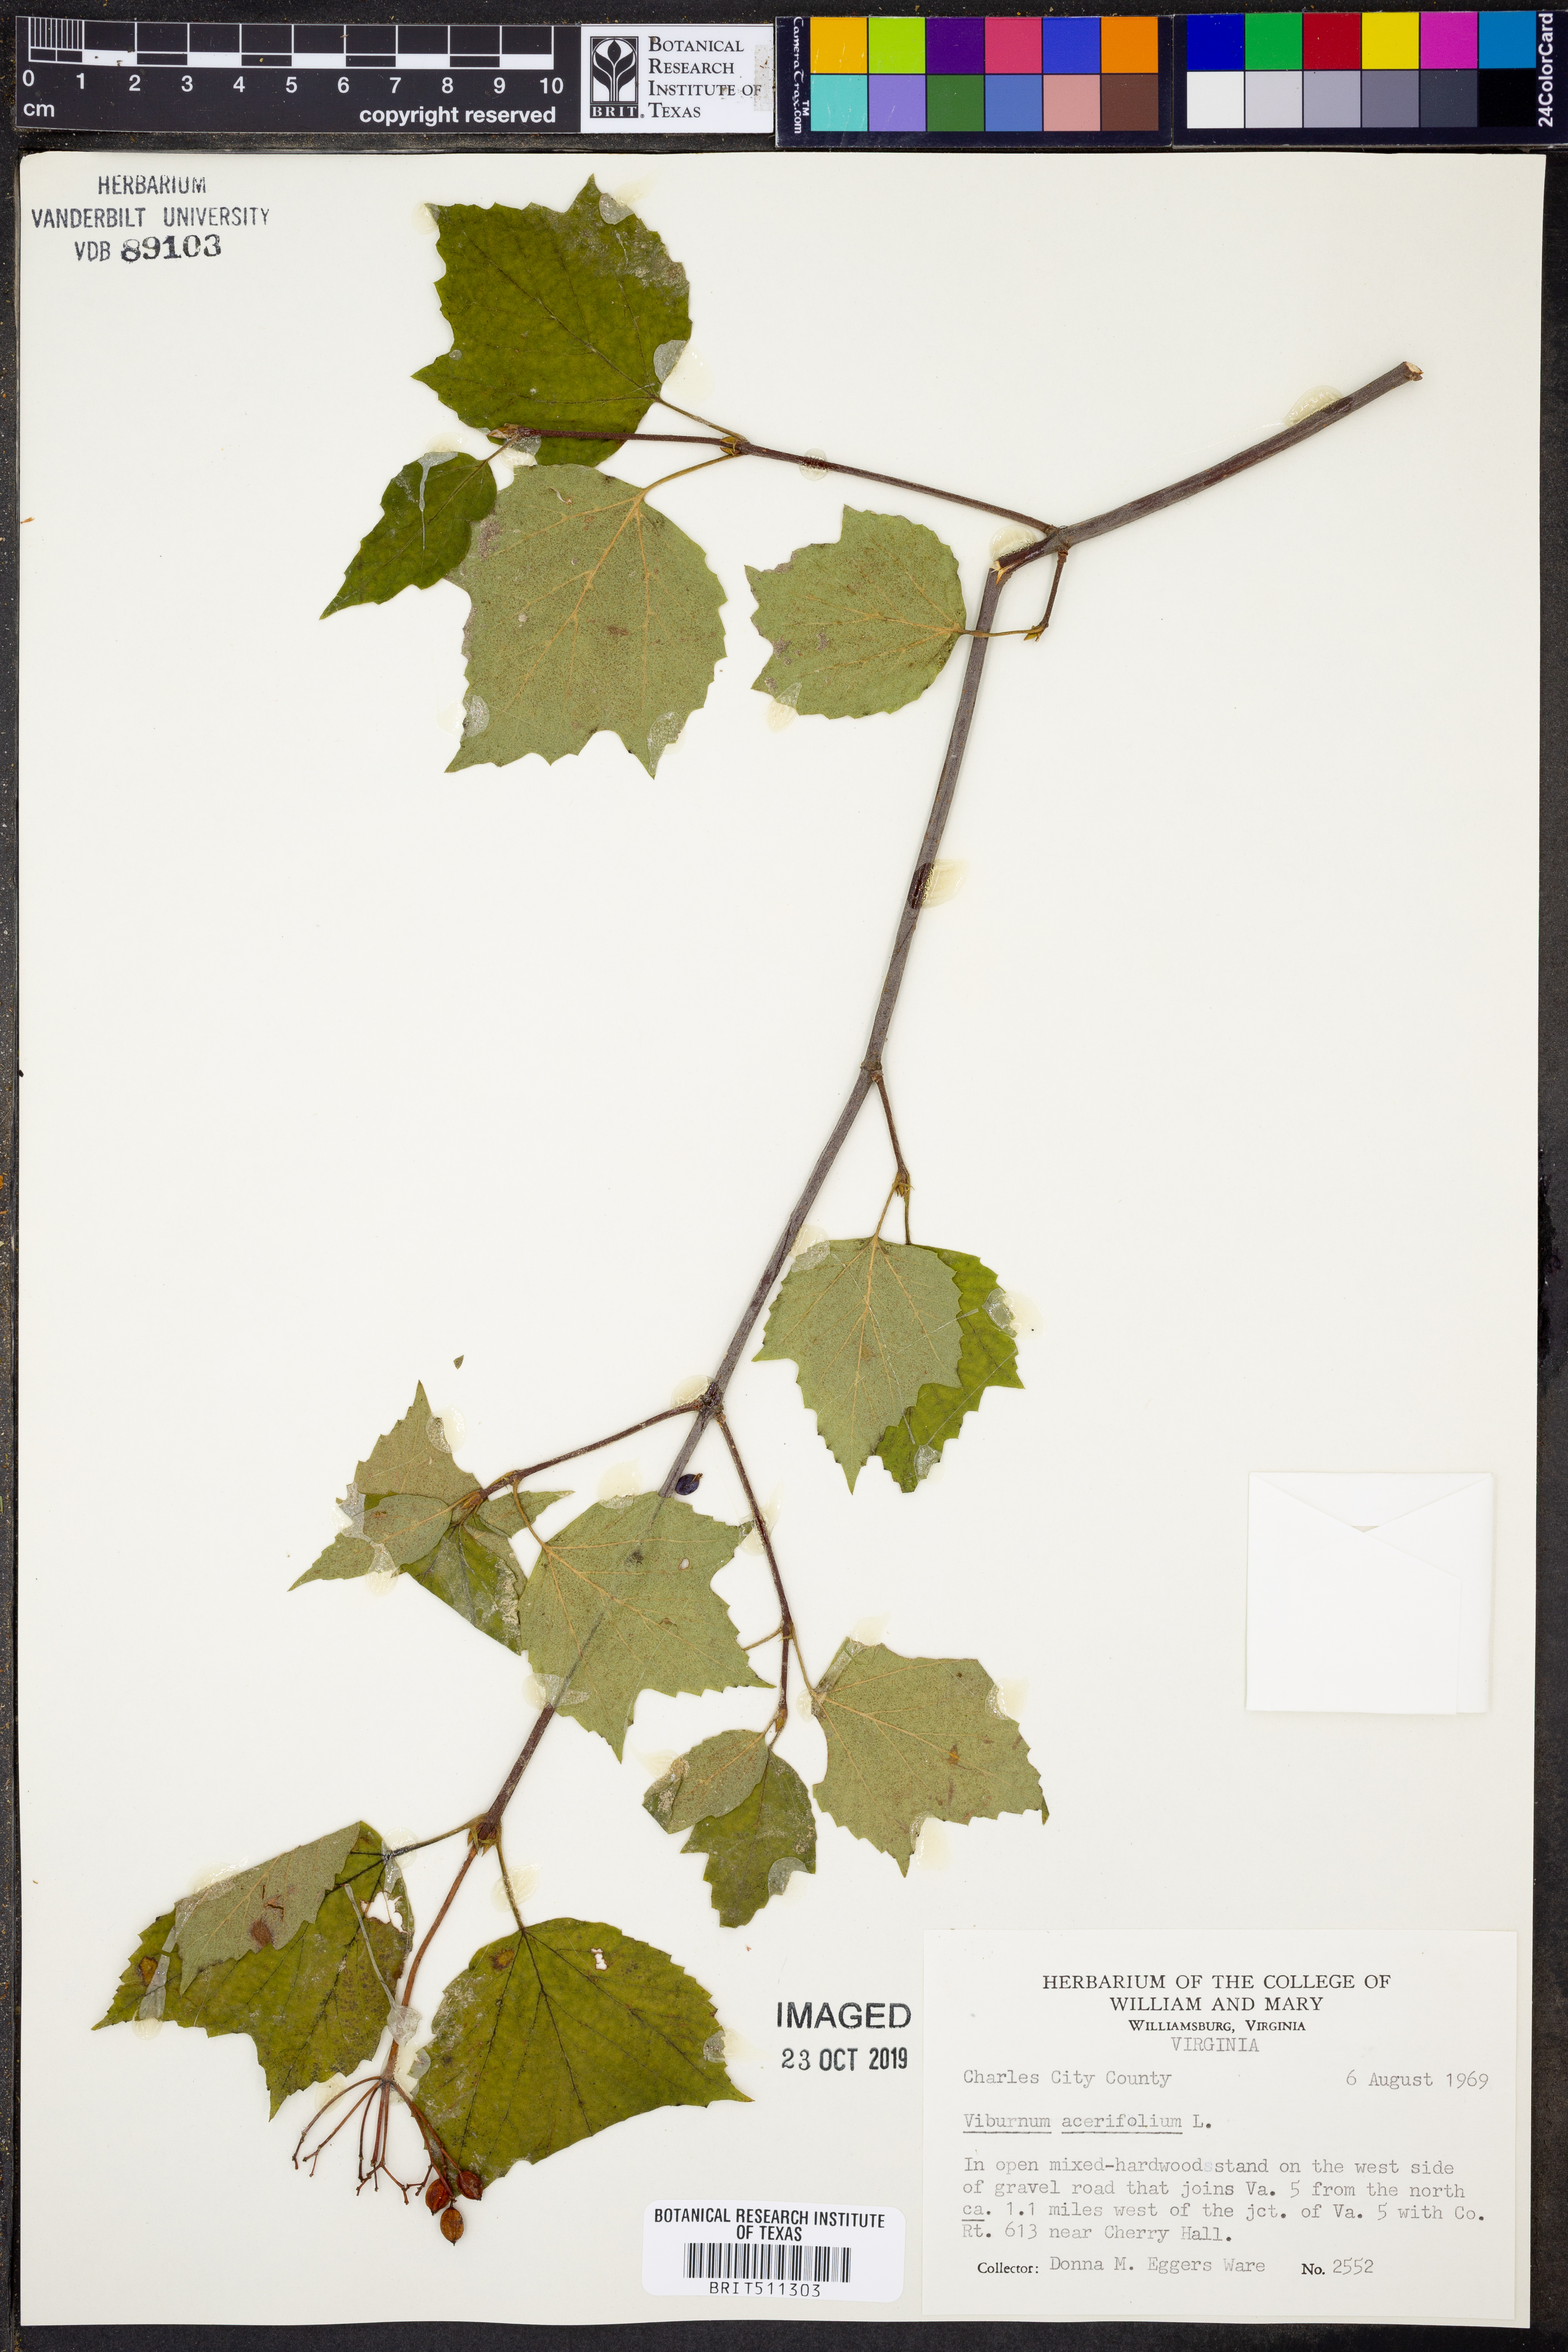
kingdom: Plantae
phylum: Tracheophyta
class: Magnoliopsida
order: Dipsacales
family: Viburnaceae
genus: Viburnum
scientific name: Viburnum acerifolium
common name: Dockmackie
